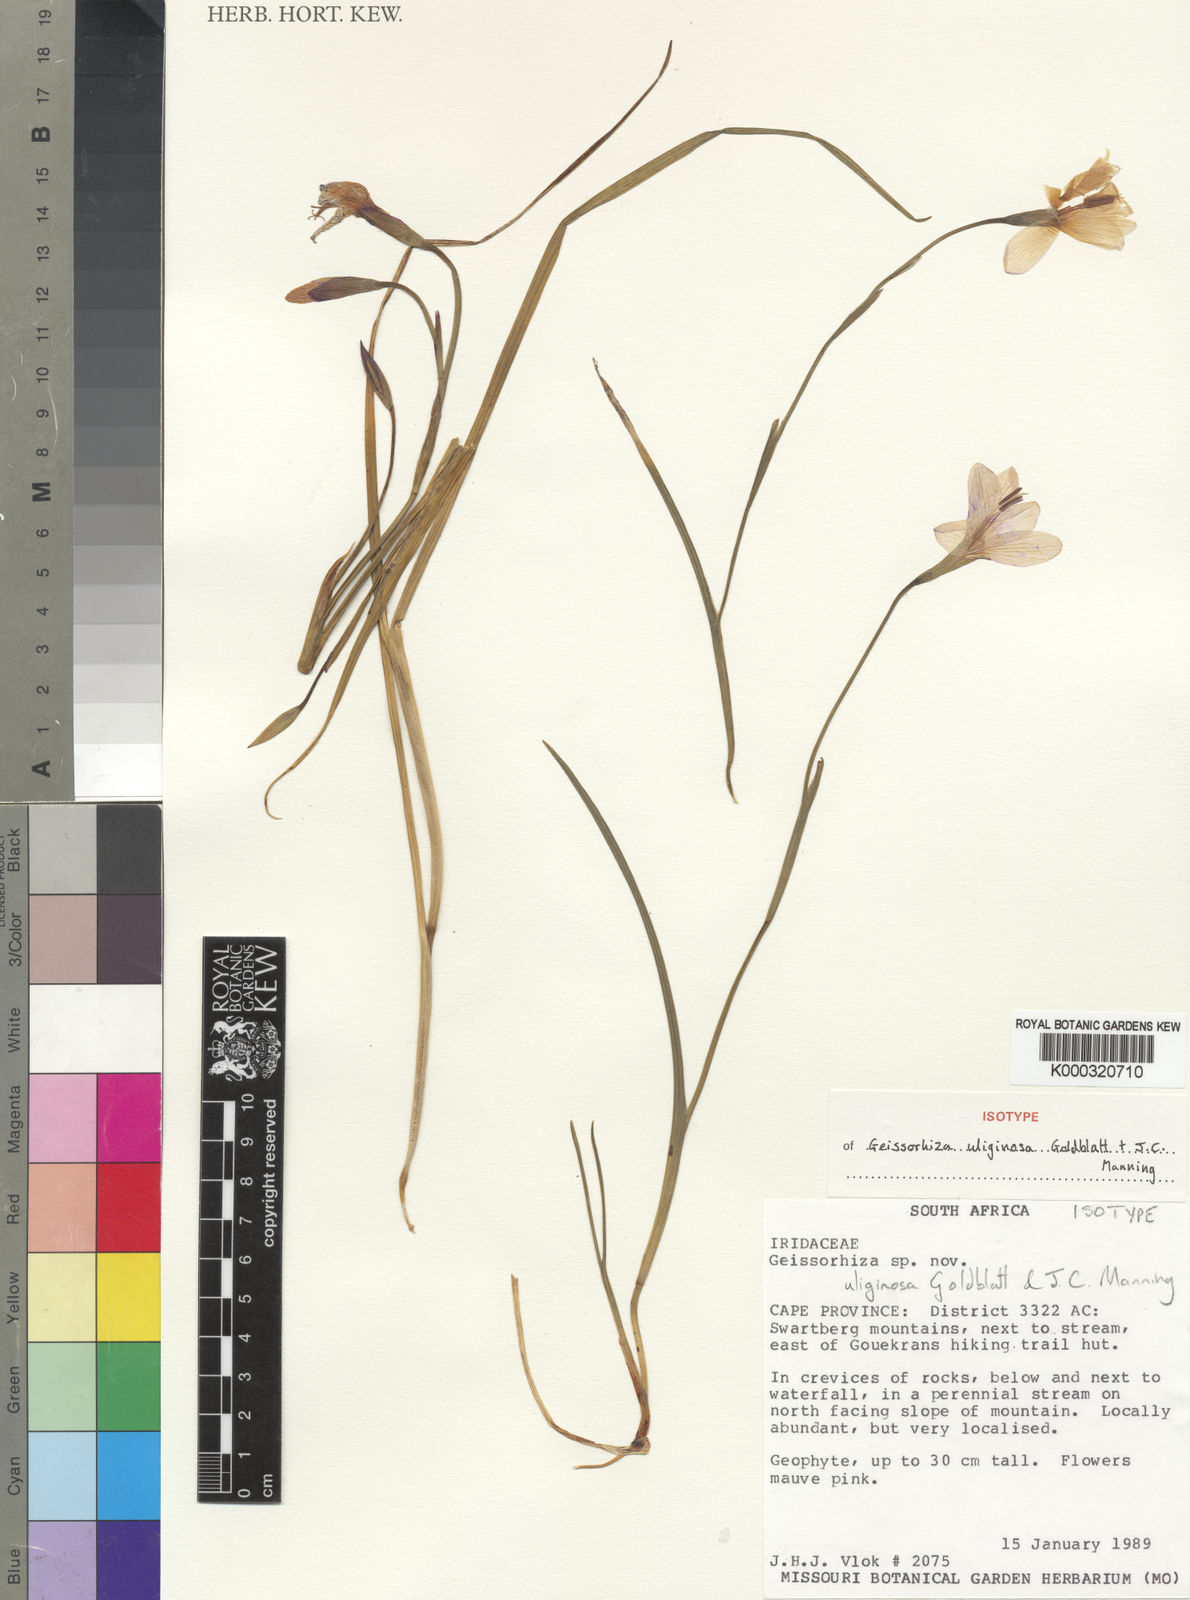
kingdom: Plantae
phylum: Tracheophyta
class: Liliopsida
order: Asparagales
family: Iridaceae
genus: Geissorhiza
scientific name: Geissorhiza uliginosa
